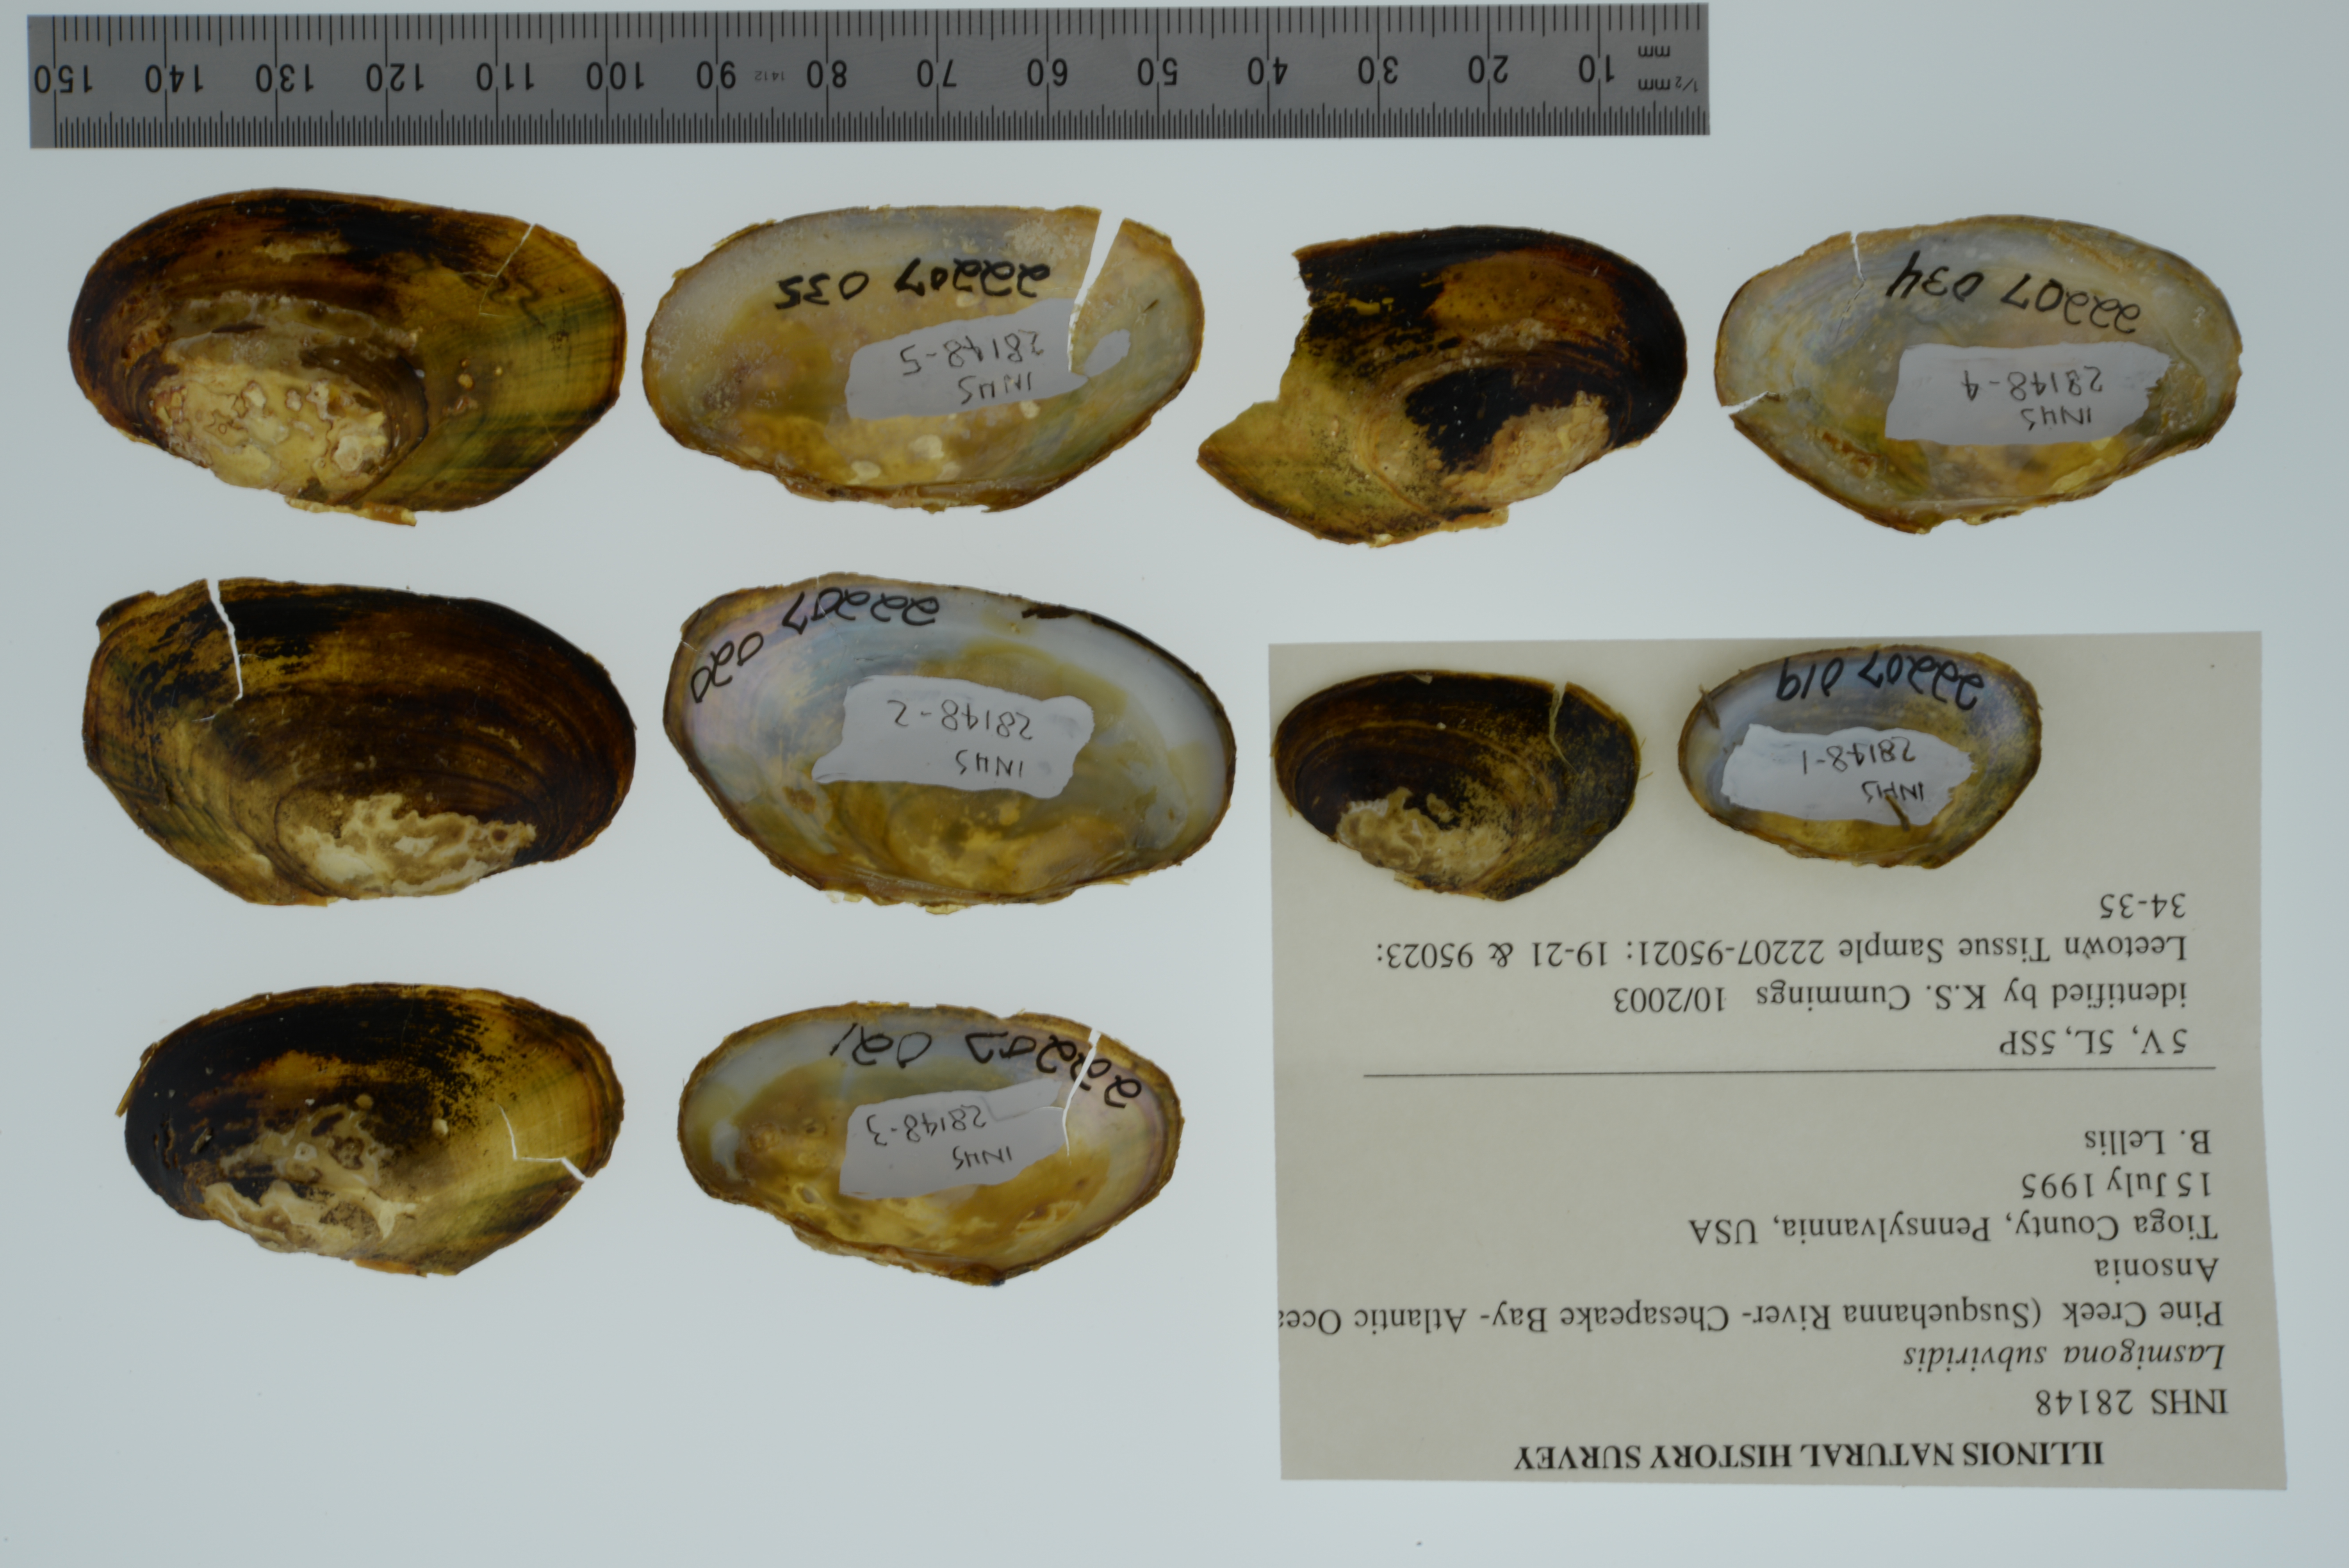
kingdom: Animalia
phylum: Mollusca
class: Bivalvia
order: Unionida
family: Unionidae
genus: Lasmigona
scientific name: Lasmigona subviridis
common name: Green floater
